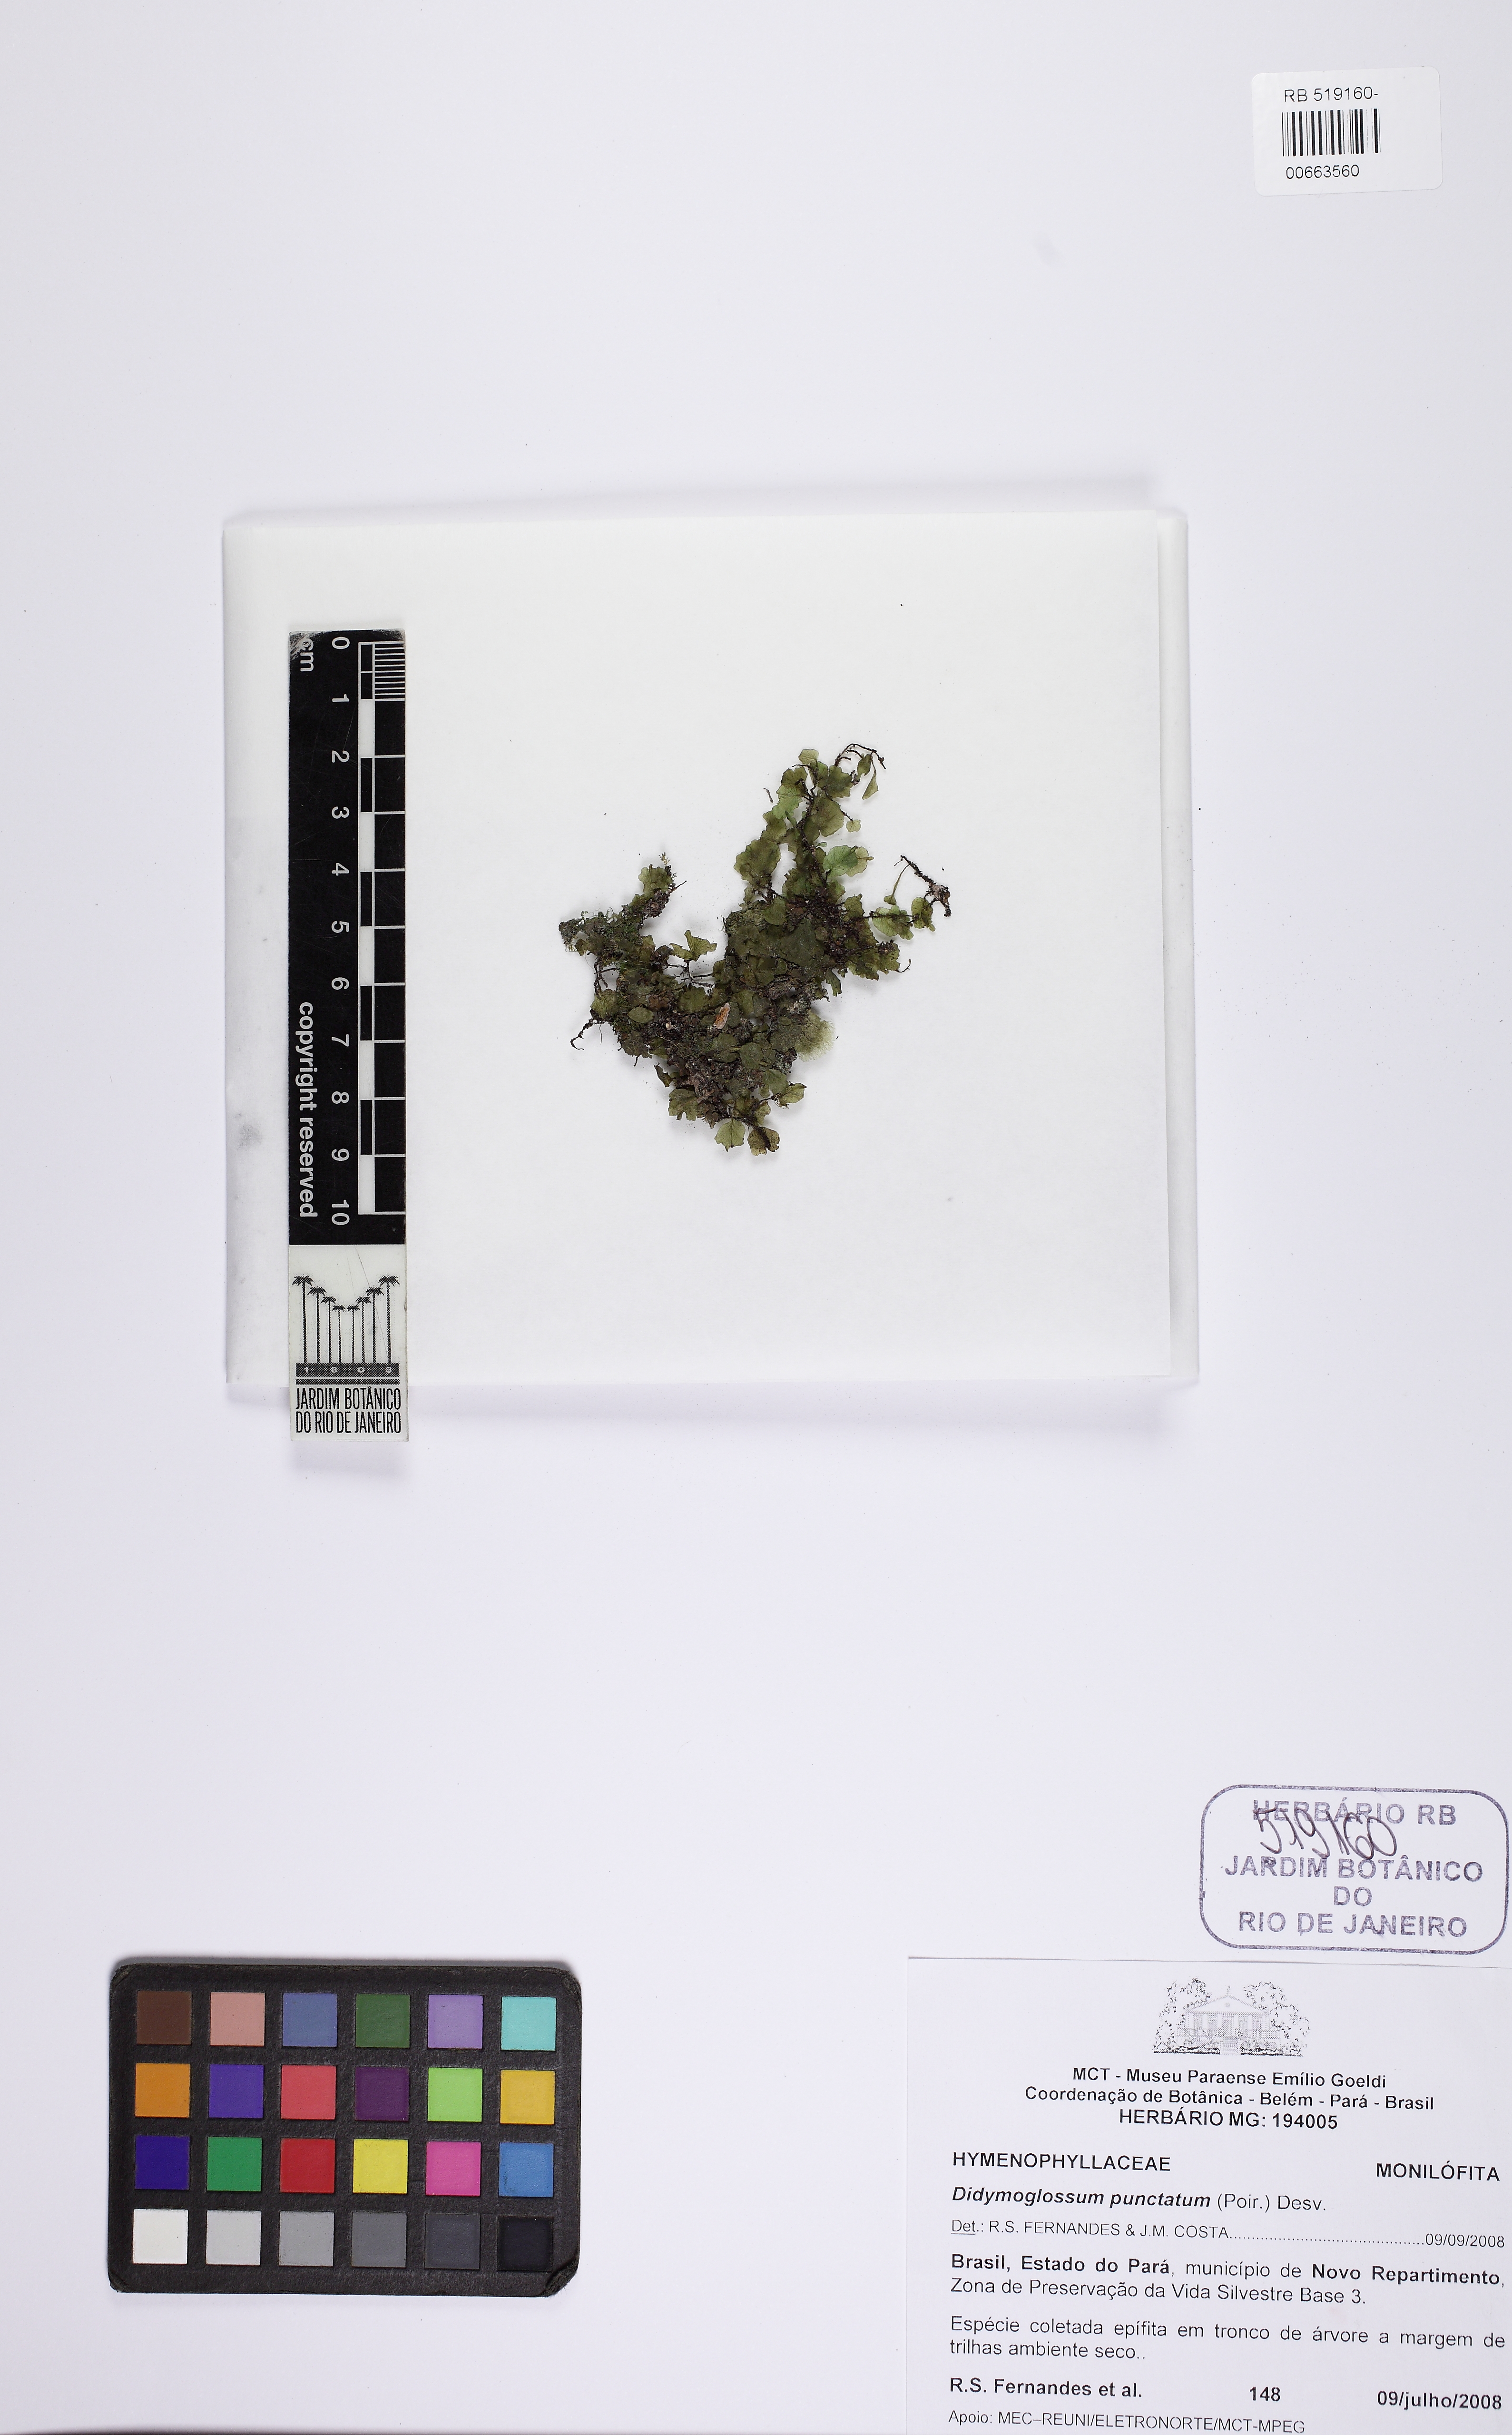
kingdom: Plantae
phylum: Tracheophyta
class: Polypodiopsida
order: Hymenophyllales
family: Hymenophyllaceae
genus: Didymoglossum
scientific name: Didymoglossum punctatum
